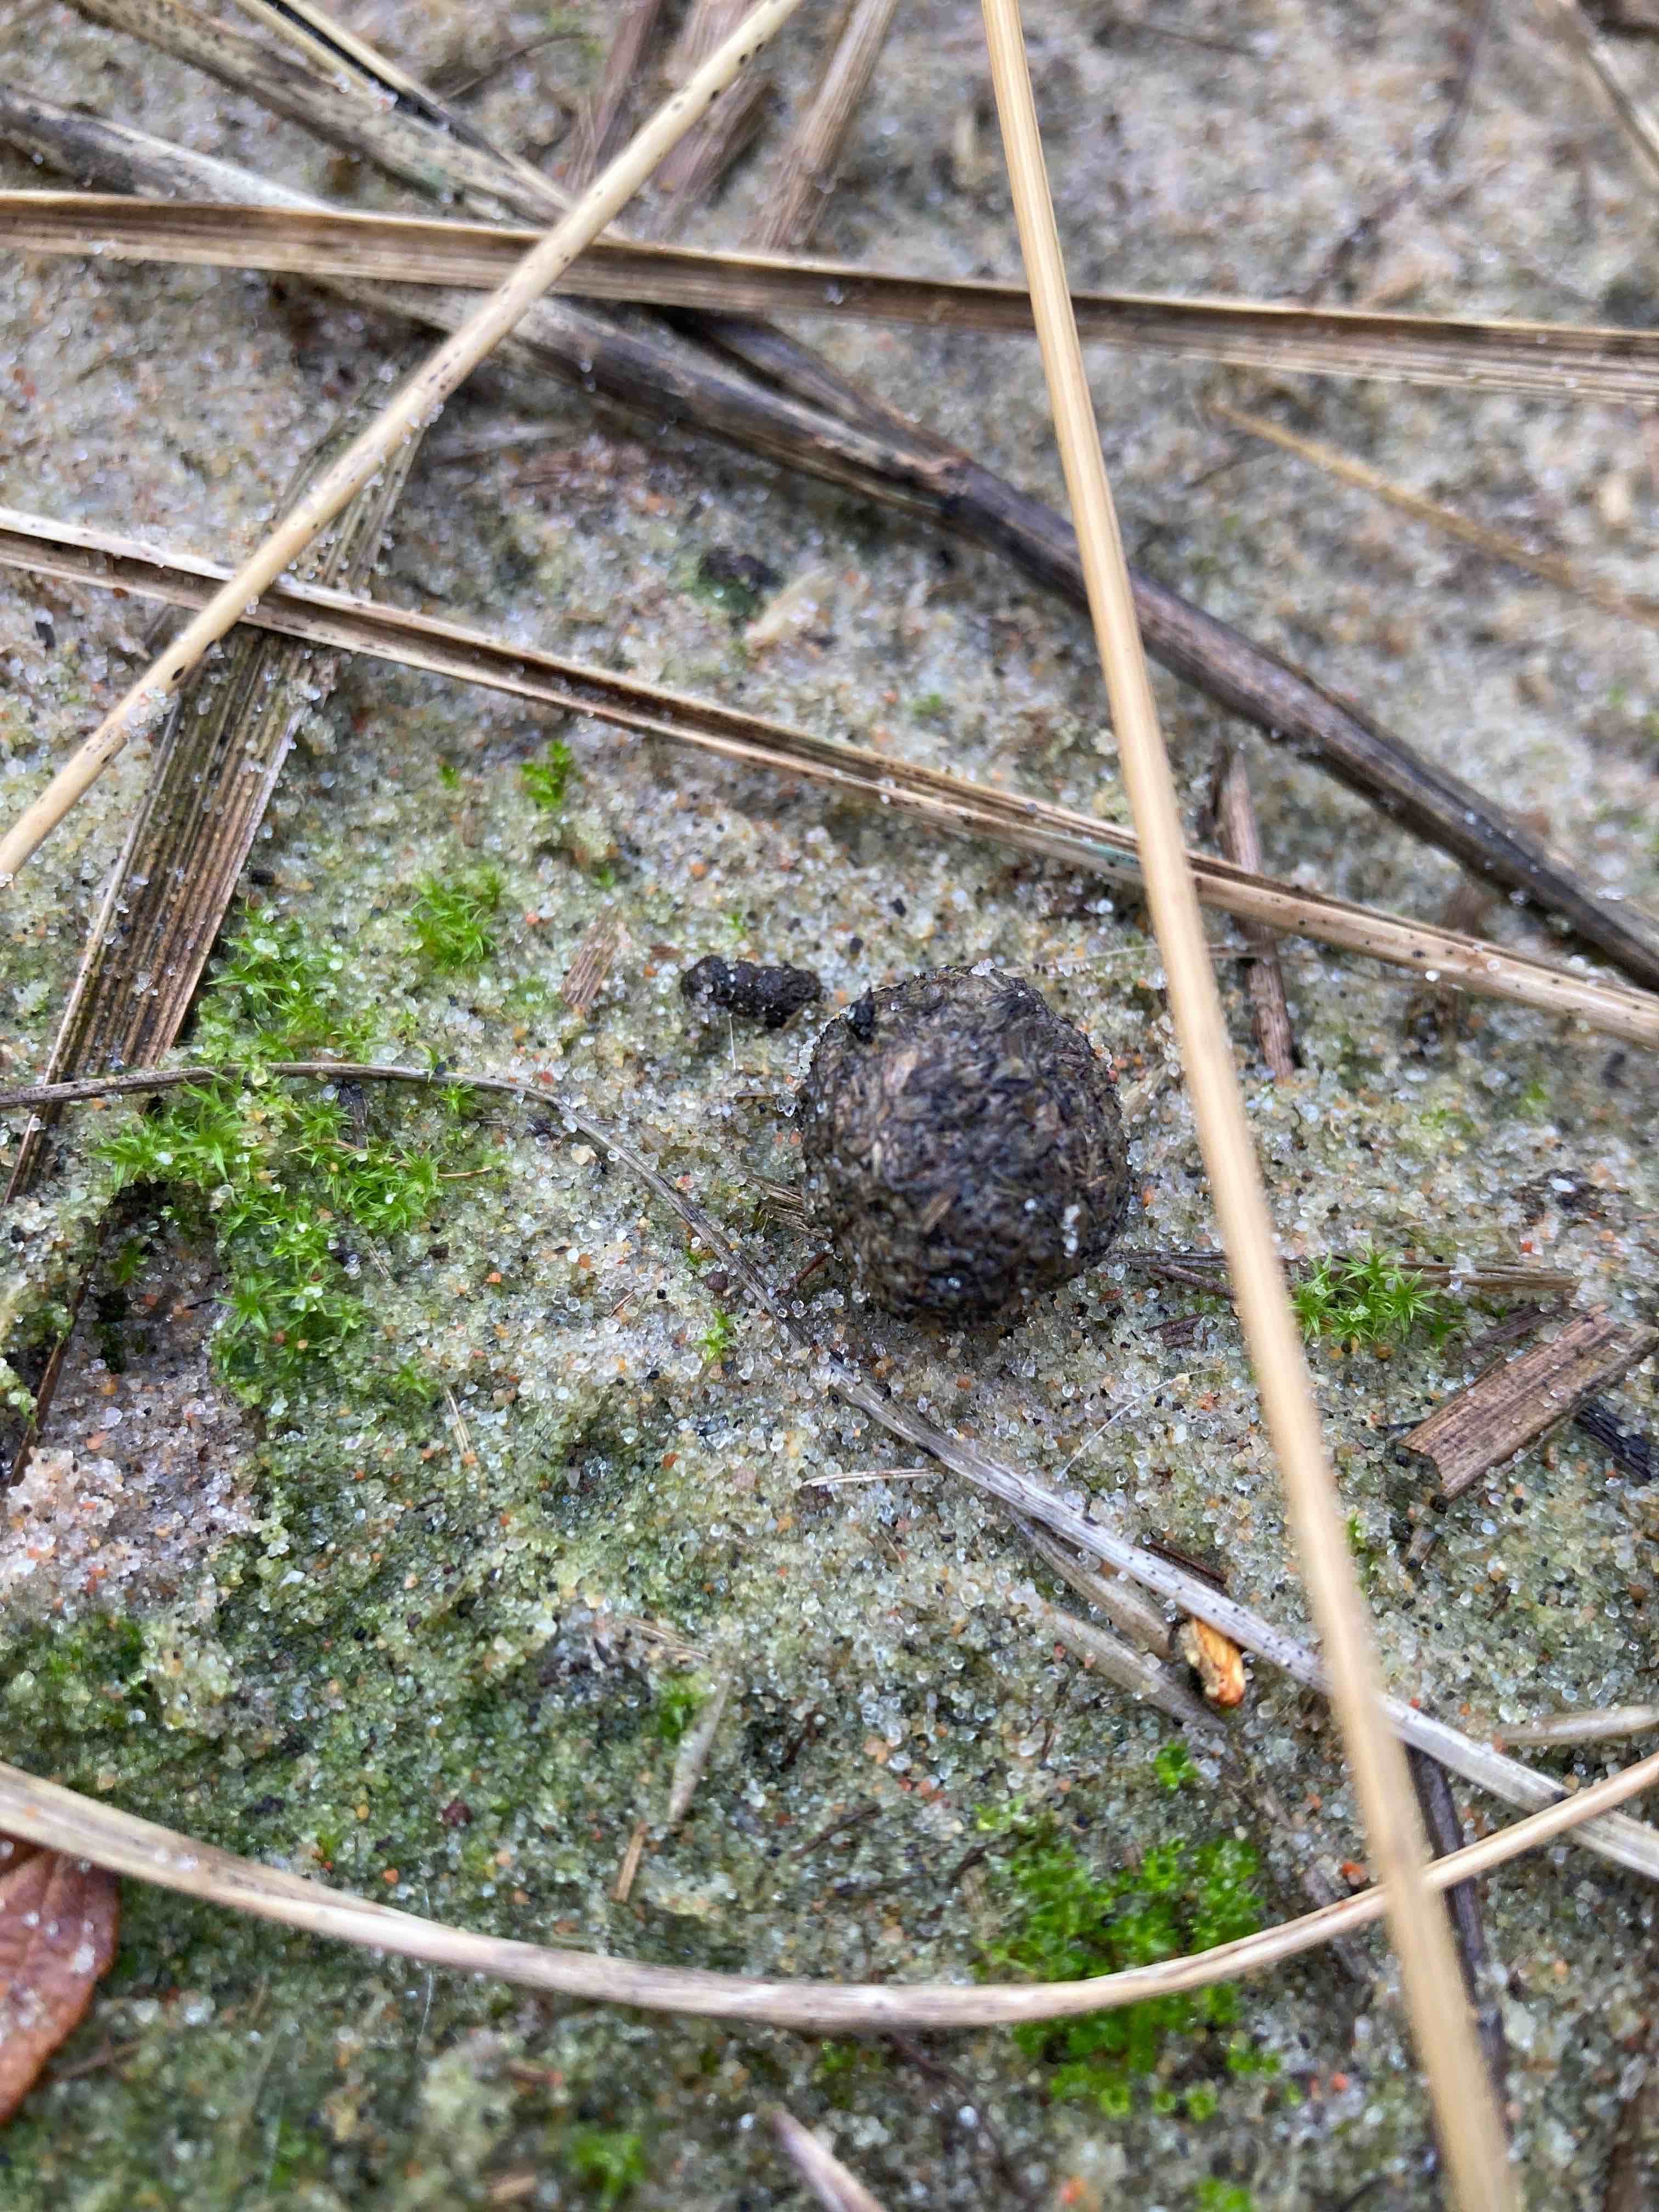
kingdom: Fungi
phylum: Ascomycota
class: Sordariomycetes
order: Xylariales
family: Xylariaceae
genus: Podosordaria
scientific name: Podosordaria tulasnei
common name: gødnings-stødsvamp
